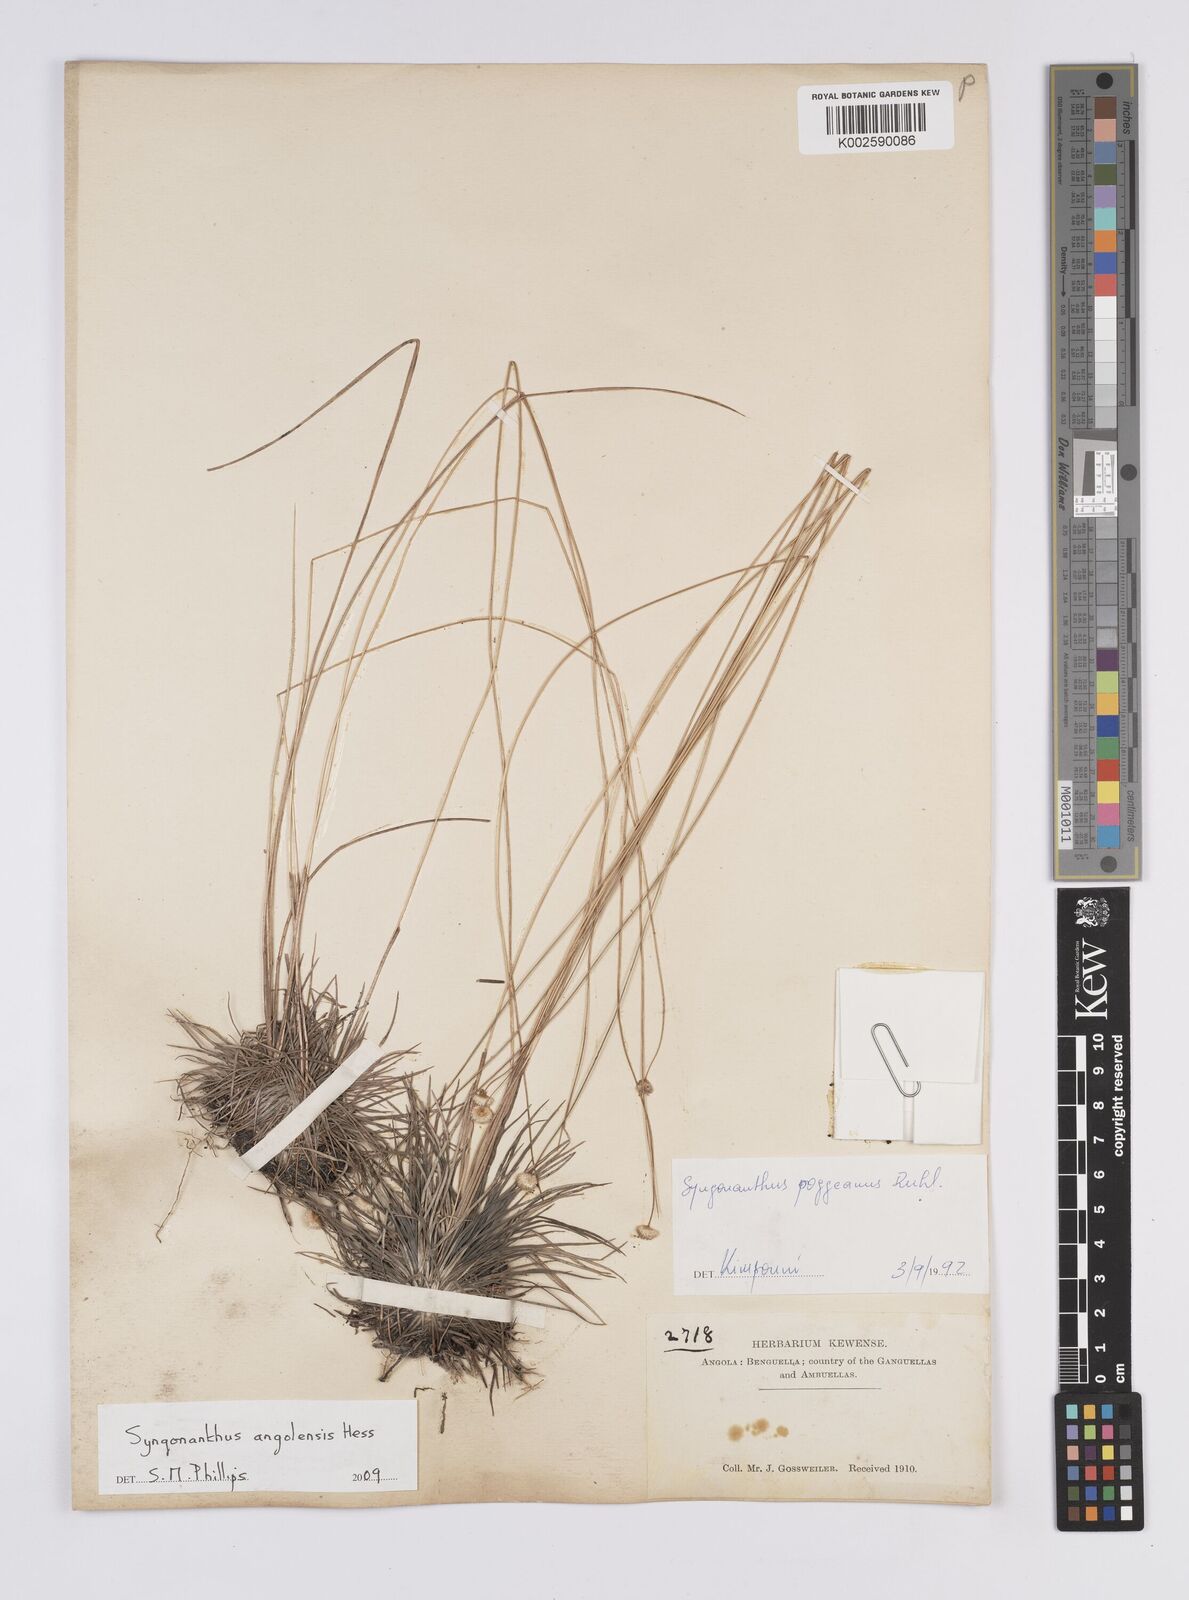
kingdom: Plantae
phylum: Tracheophyta
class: Liliopsida
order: Poales
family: Eriocaulaceae
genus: Syngonanthus
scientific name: Syngonanthus angolensis
